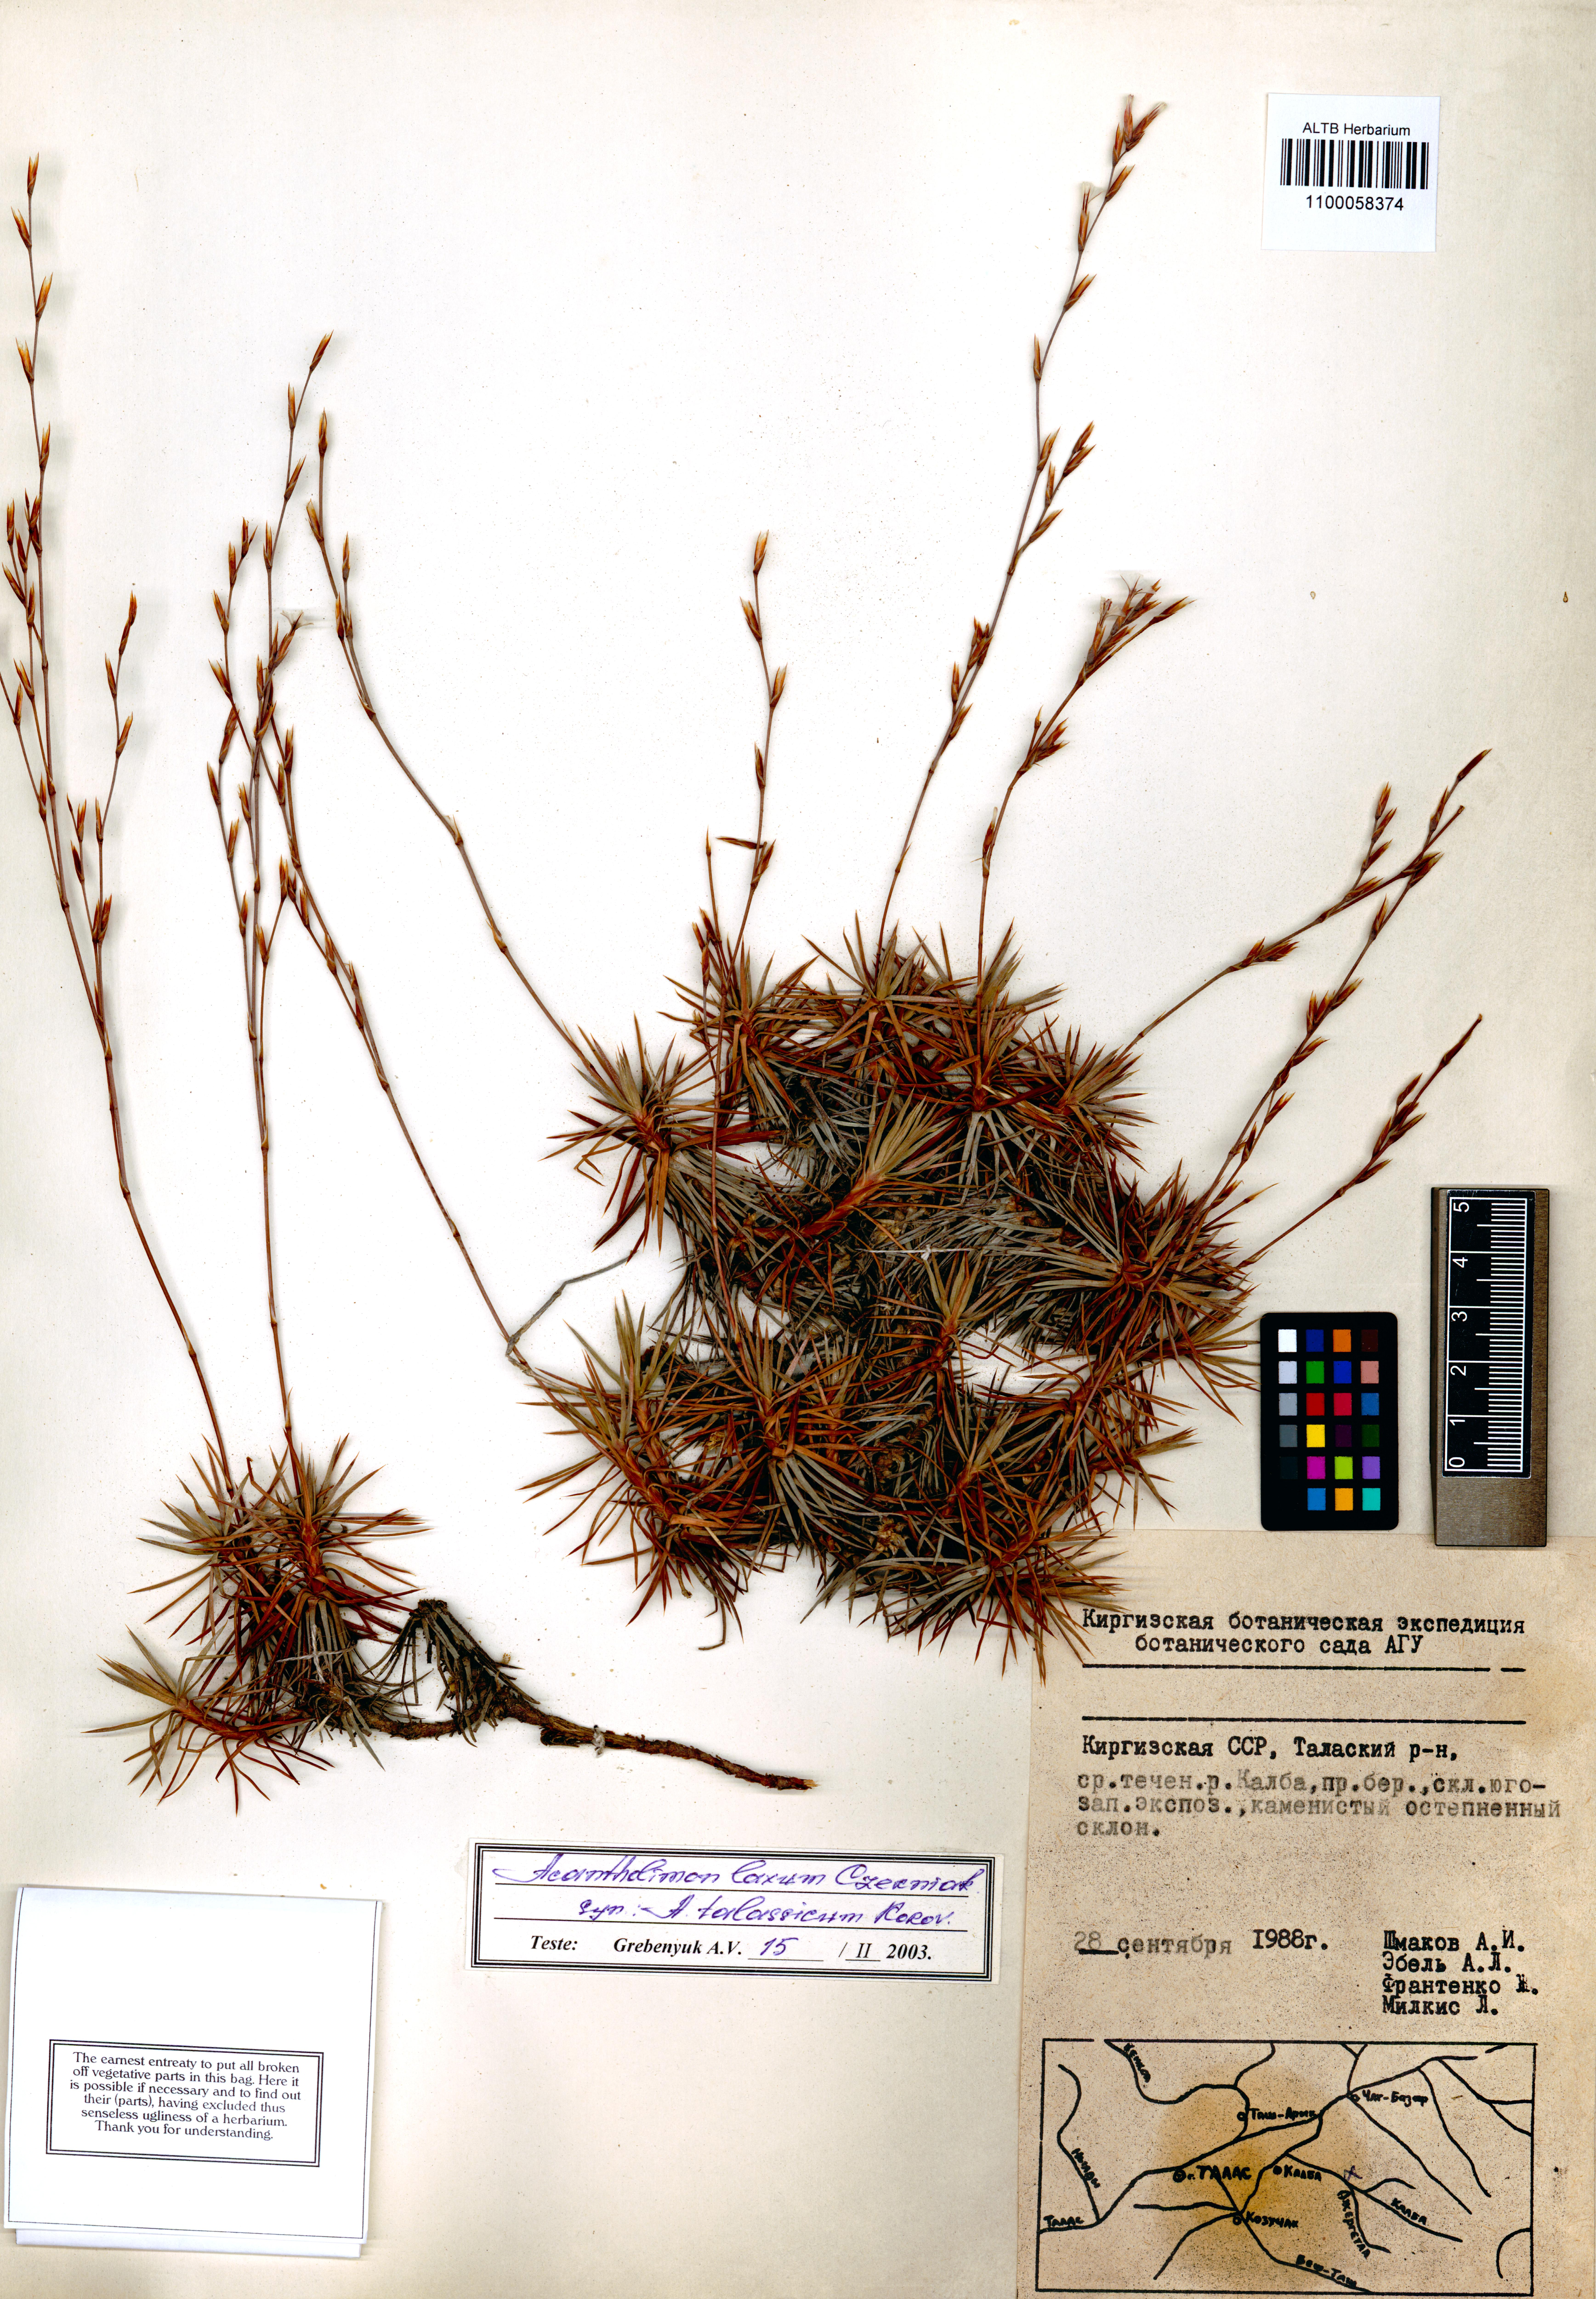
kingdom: Plantae
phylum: Tracheophyta
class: Magnoliopsida
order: Caryophyllales
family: Plumbaginaceae
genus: Acantholimon
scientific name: Acantholimon laxum
